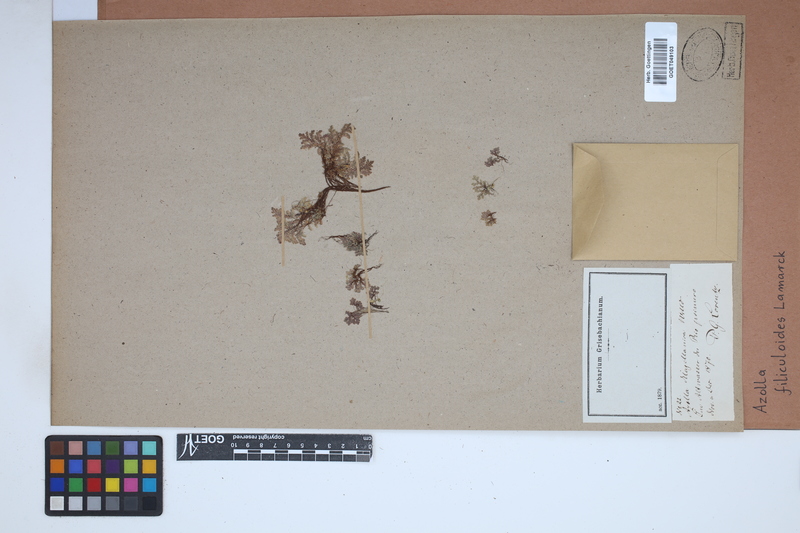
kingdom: Plantae
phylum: Tracheophyta
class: Polypodiopsida
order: Salviniales
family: Salviniaceae
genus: Azolla
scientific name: Azolla filiculoides
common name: Water fern
